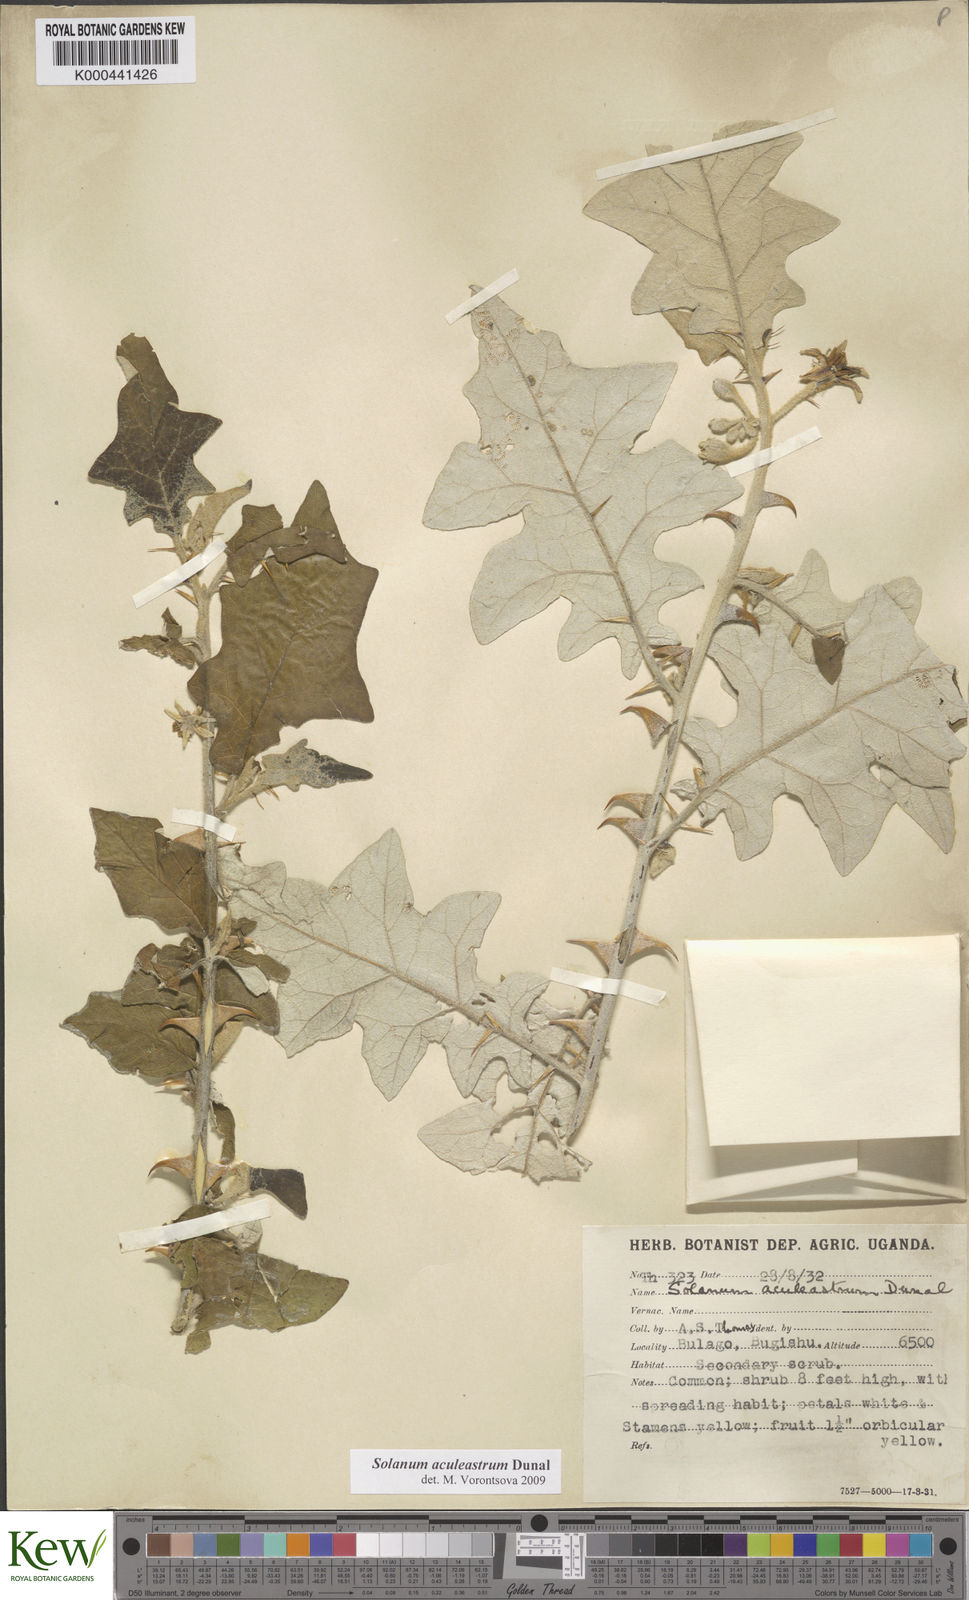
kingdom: Plantae
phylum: Tracheophyta
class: Magnoliopsida
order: Solanales
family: Solanaceae
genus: Solanum
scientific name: Solanum aculeastrum
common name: Goat bitter-apple
